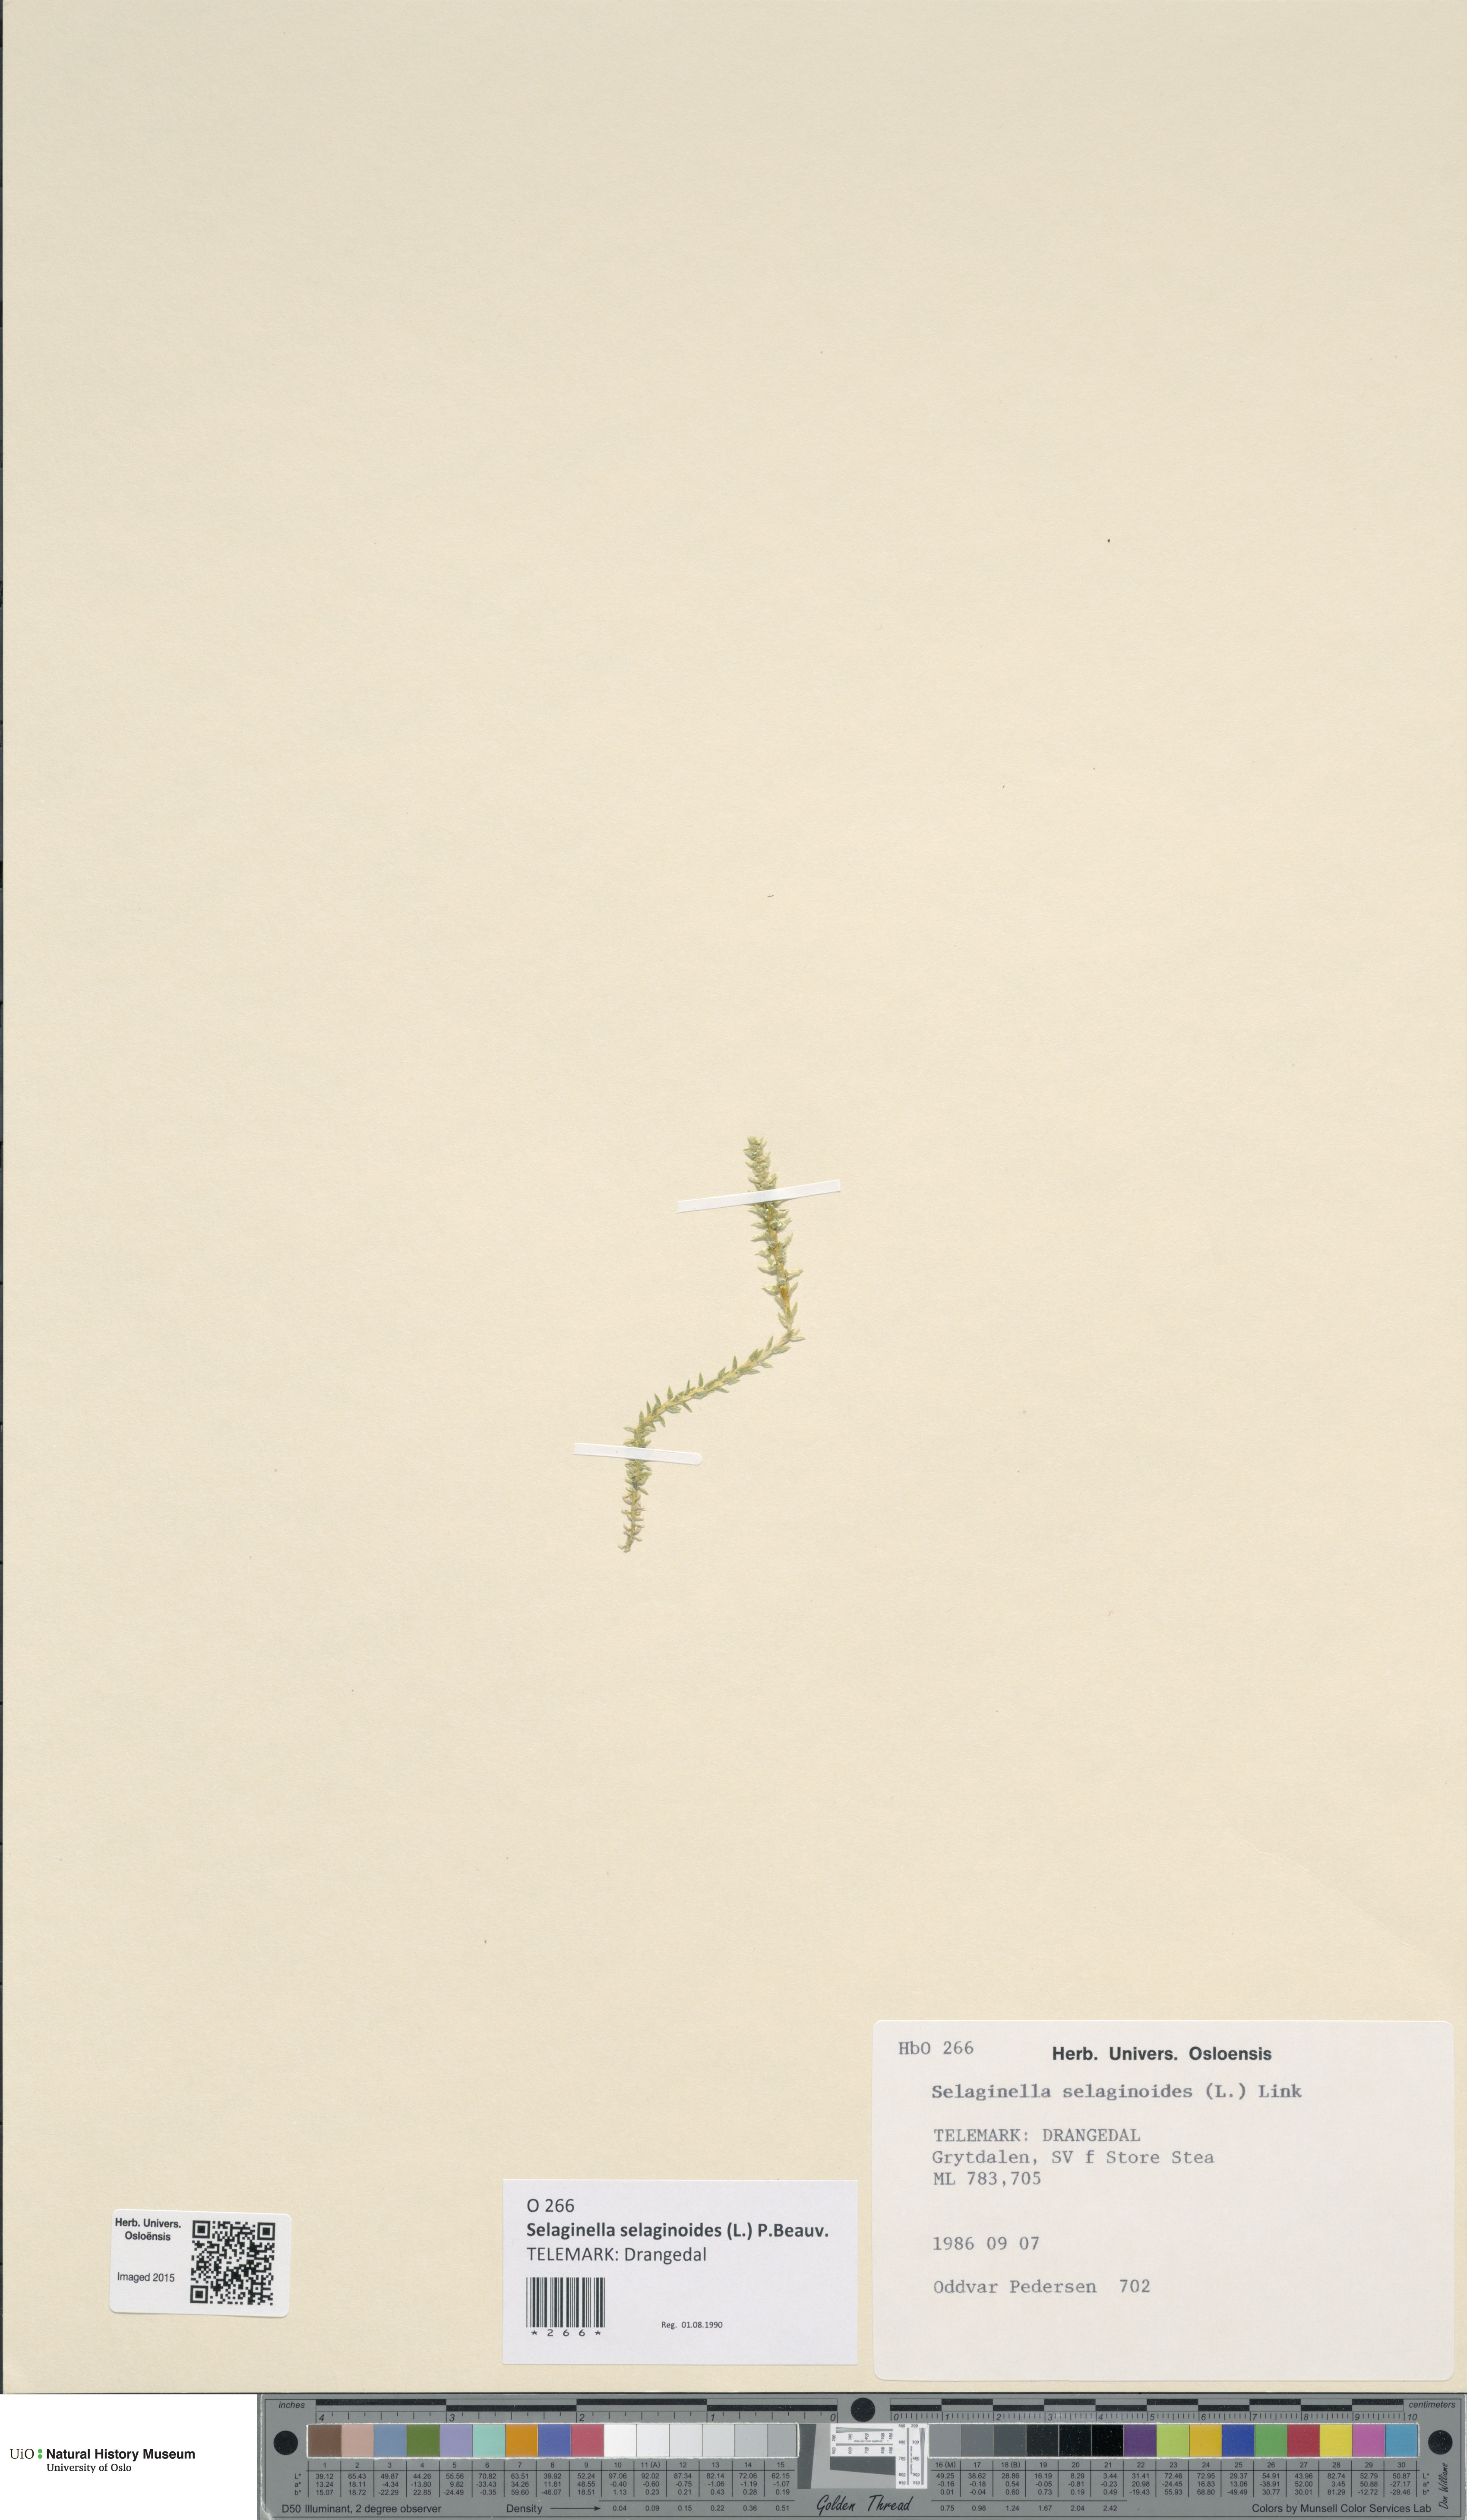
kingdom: Plantae
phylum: Tracheophyta
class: Lycopodiopsida
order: Selaginellales
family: Selaginellaceae
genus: Selaginella
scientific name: Selaginella selaginoides
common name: Prickly mountain-moss
